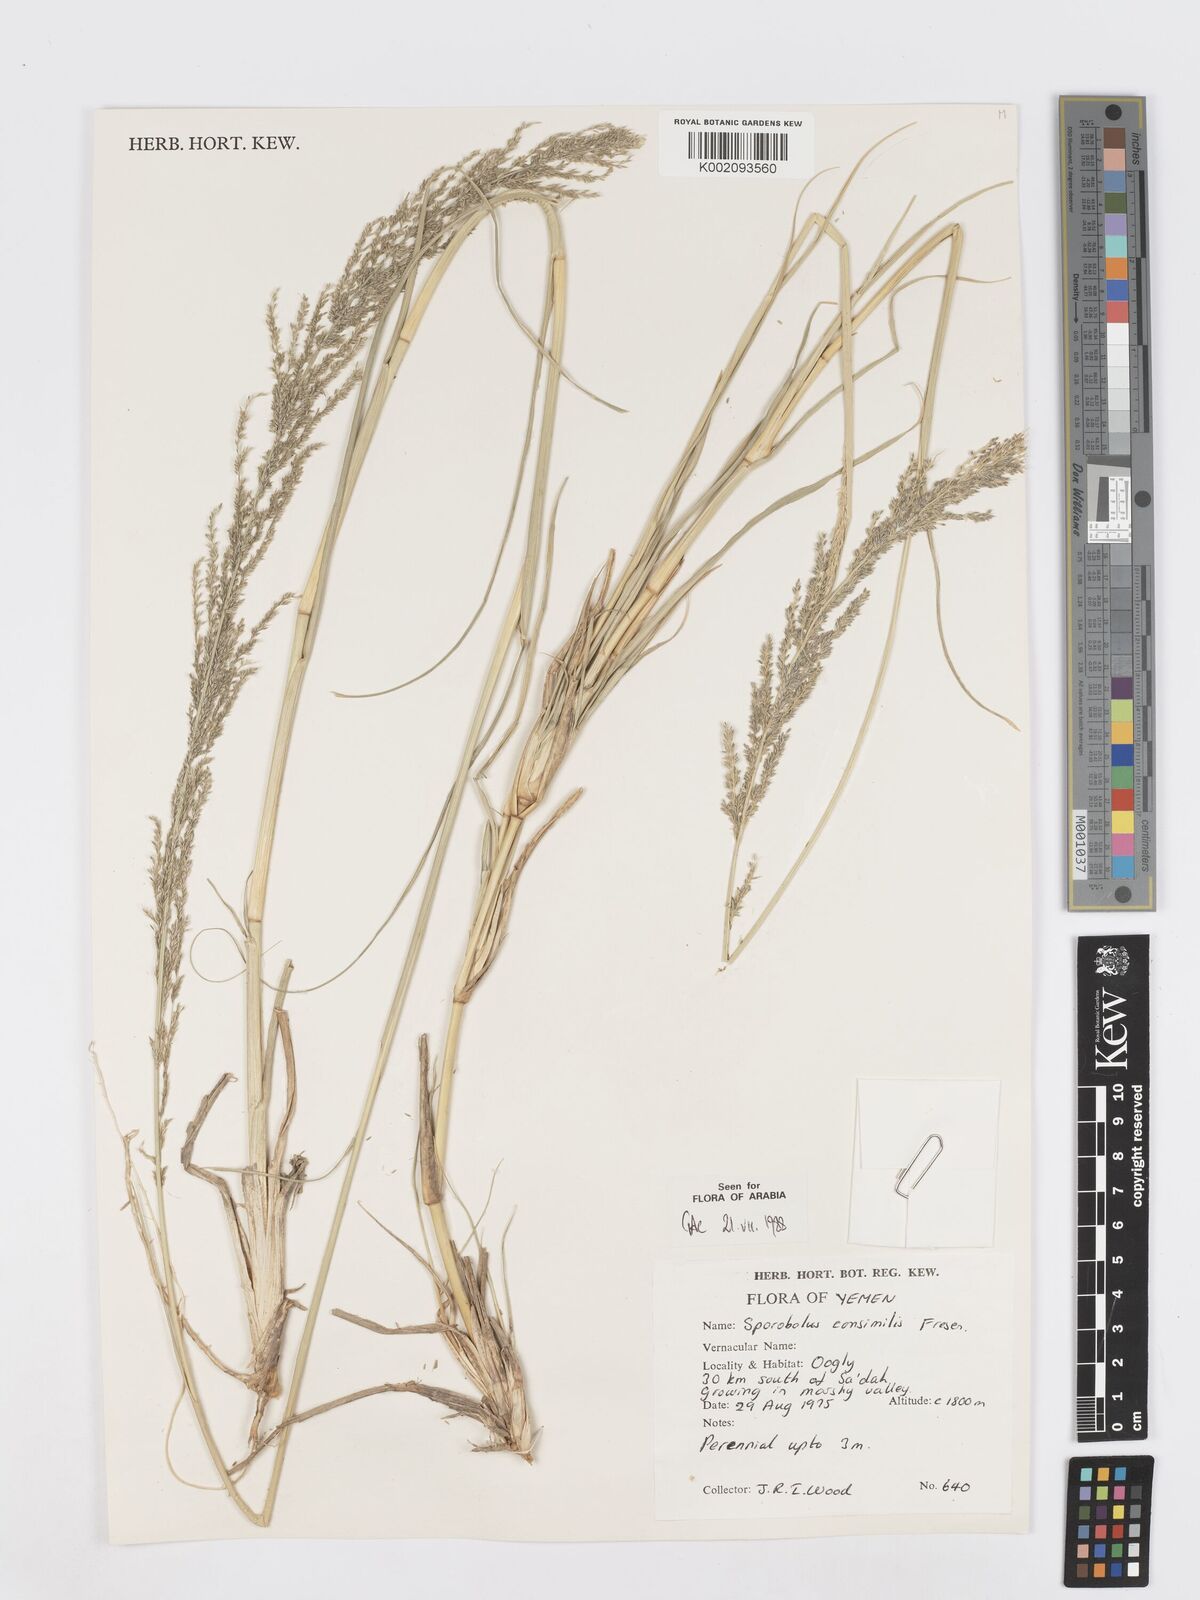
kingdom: Plantae
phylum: Tracheophyta
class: Liliopsida
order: Poales
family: Poaceae
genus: Sporobolus
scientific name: Sporobolus consimilis
